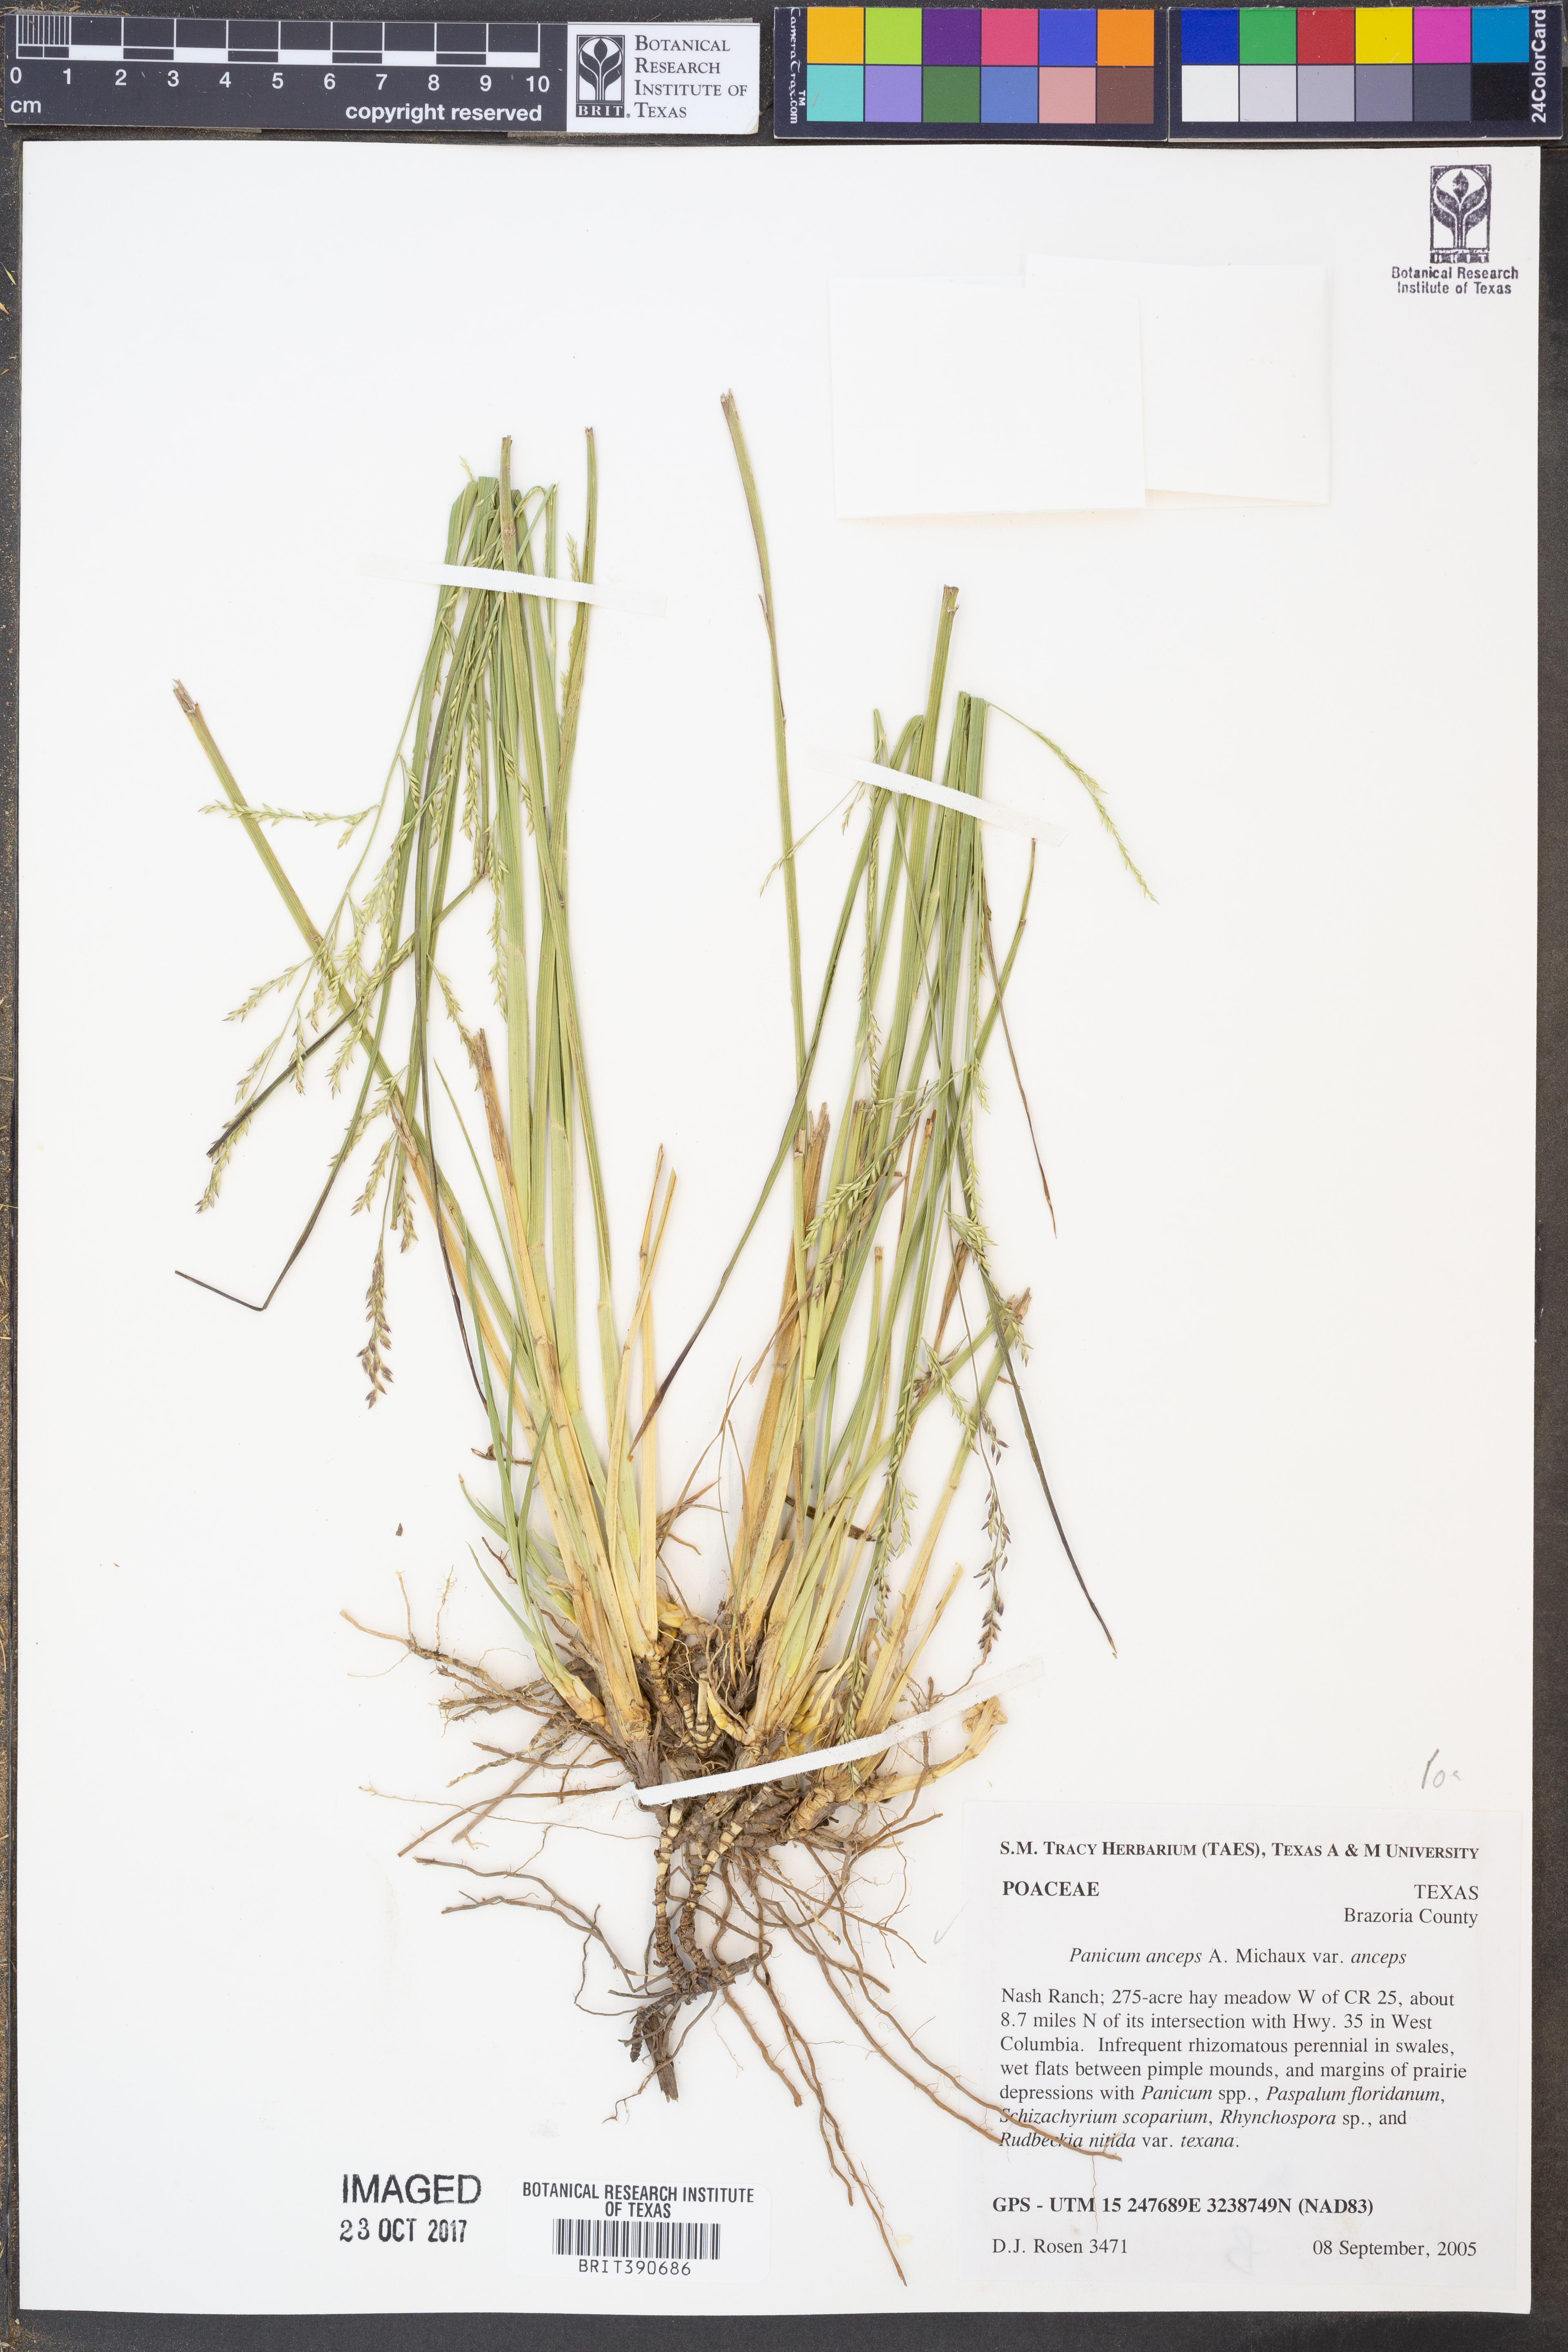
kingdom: Plantae
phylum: Tracheophyta
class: Liliopsida
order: Poales
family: Poaceae
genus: Coleataenia
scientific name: Coleataenia anceps
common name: Beaked panic grass
